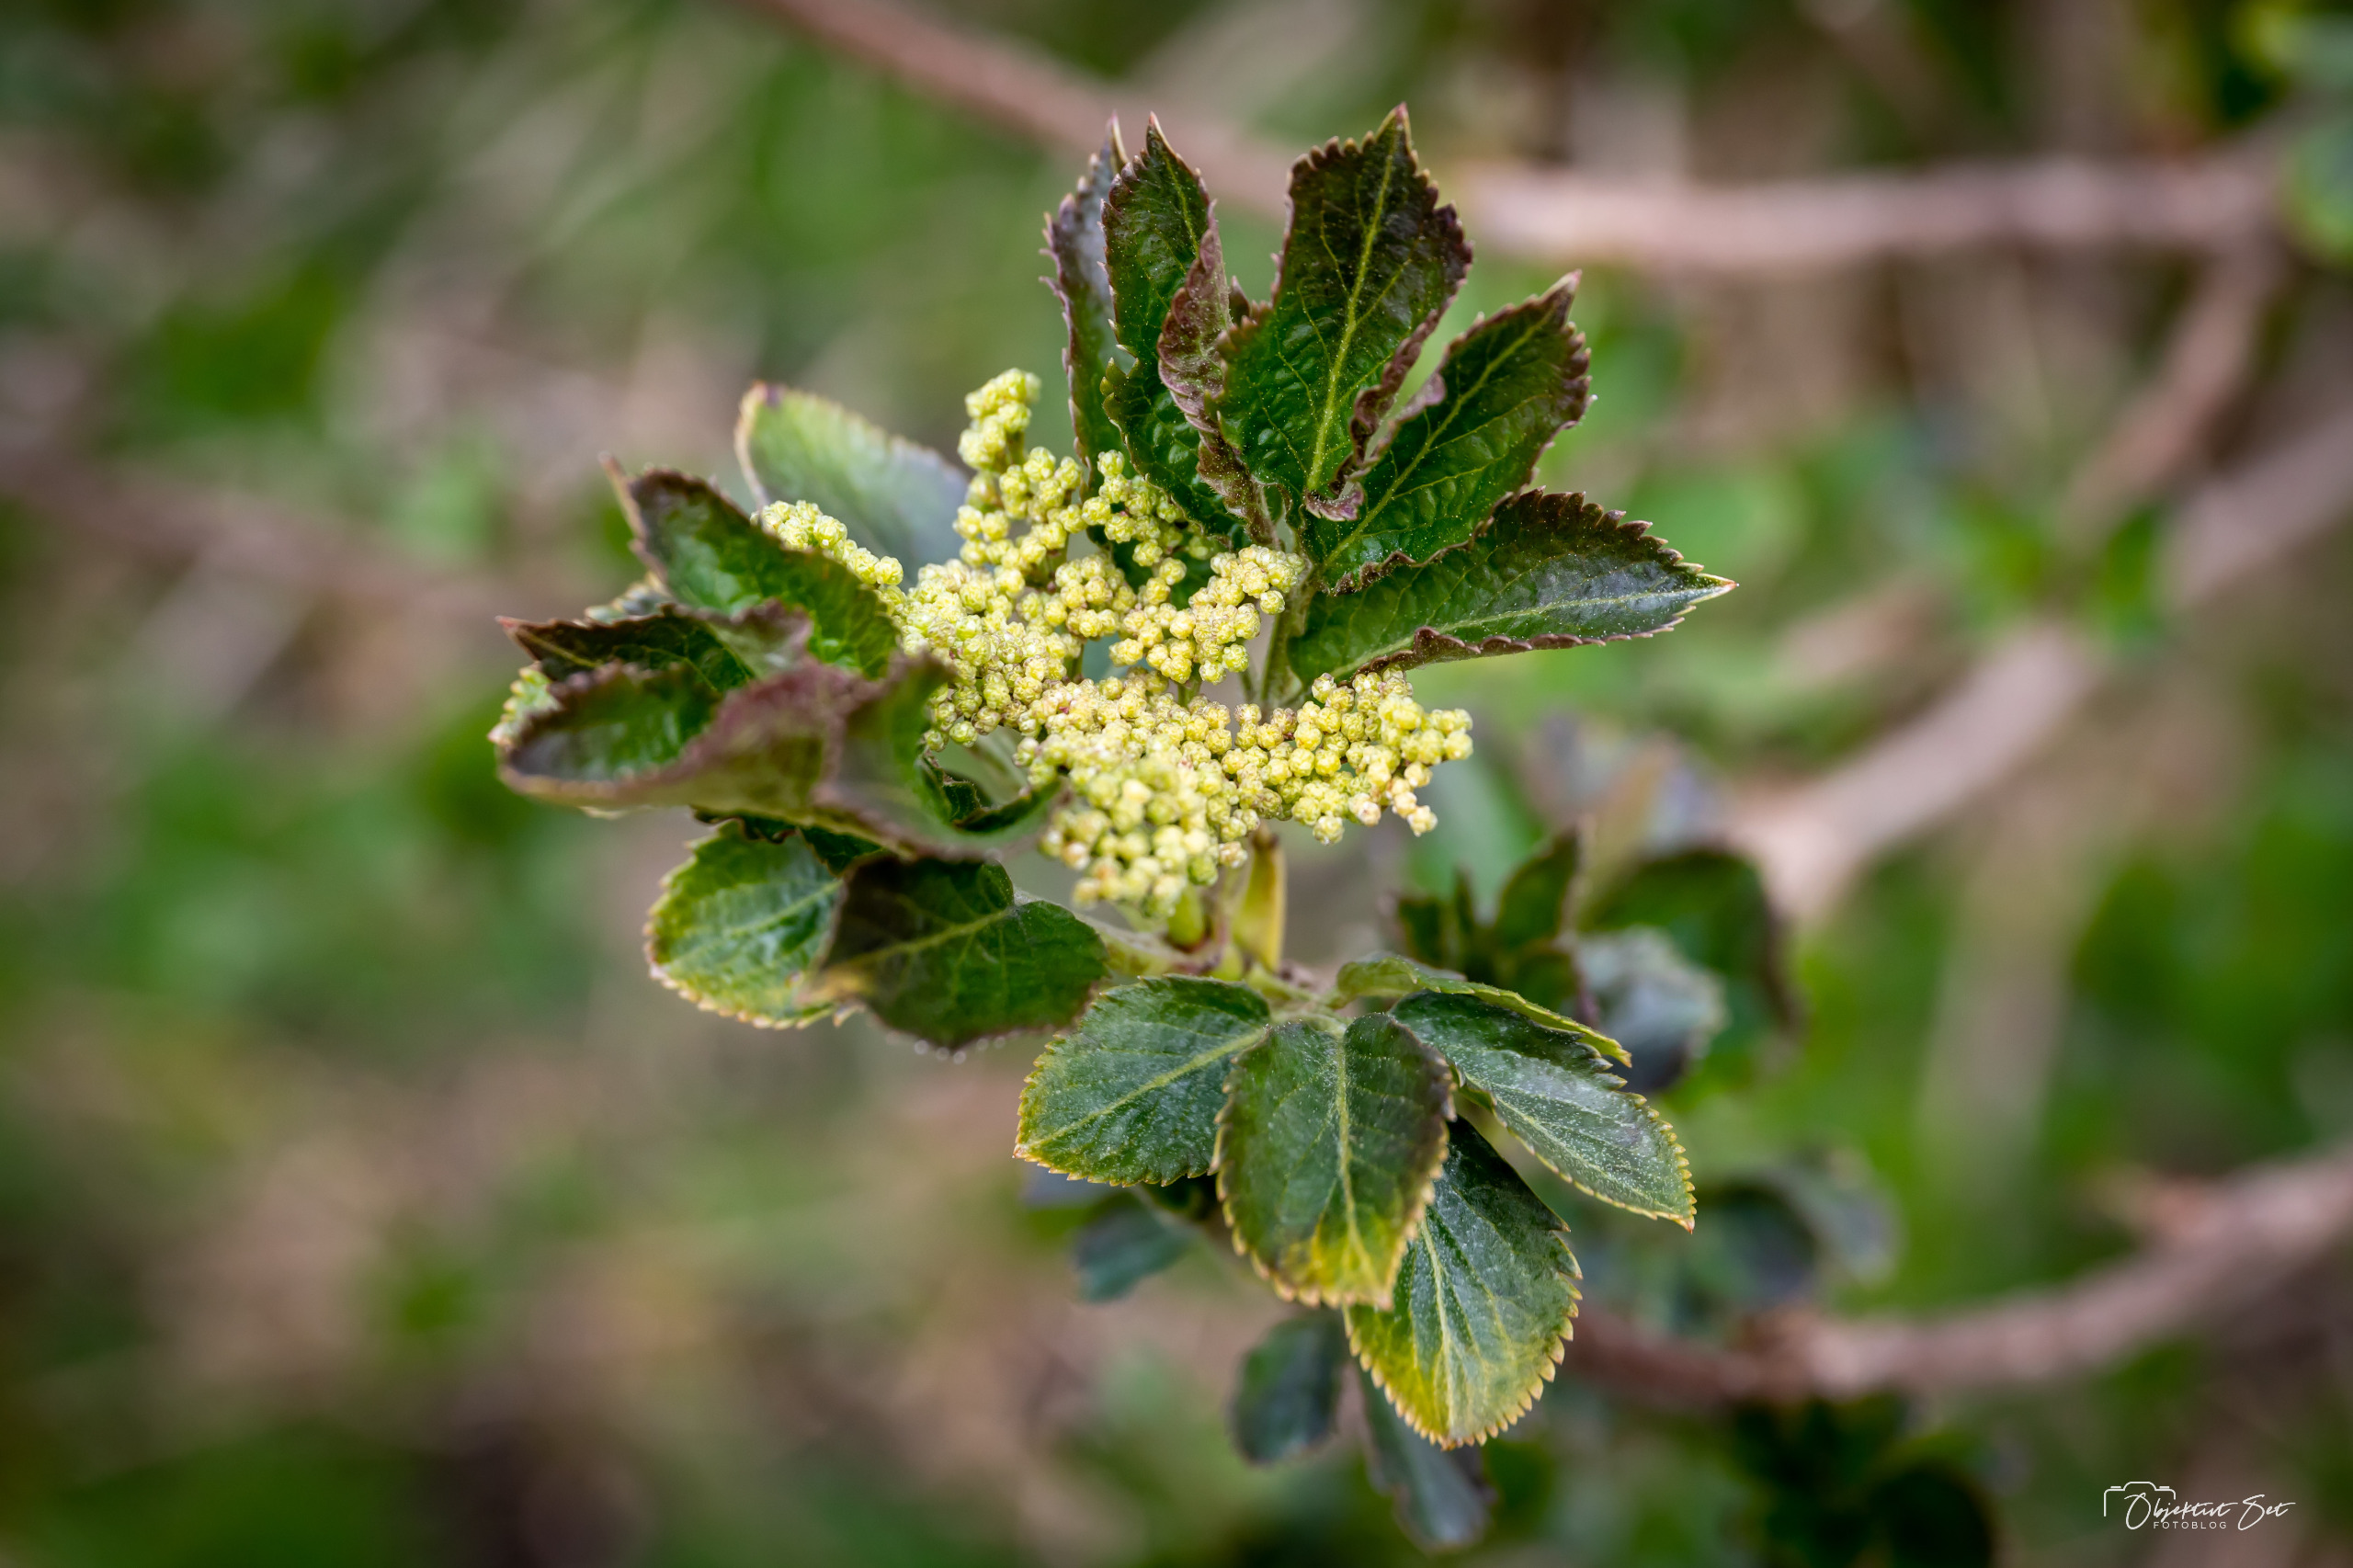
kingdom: Plantae
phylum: Tracheophyta
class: Magnoliopsida
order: Dipsacales
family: Viburnaceae
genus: Sambucus
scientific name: Sambucus nigra
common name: Almindelig hyld
